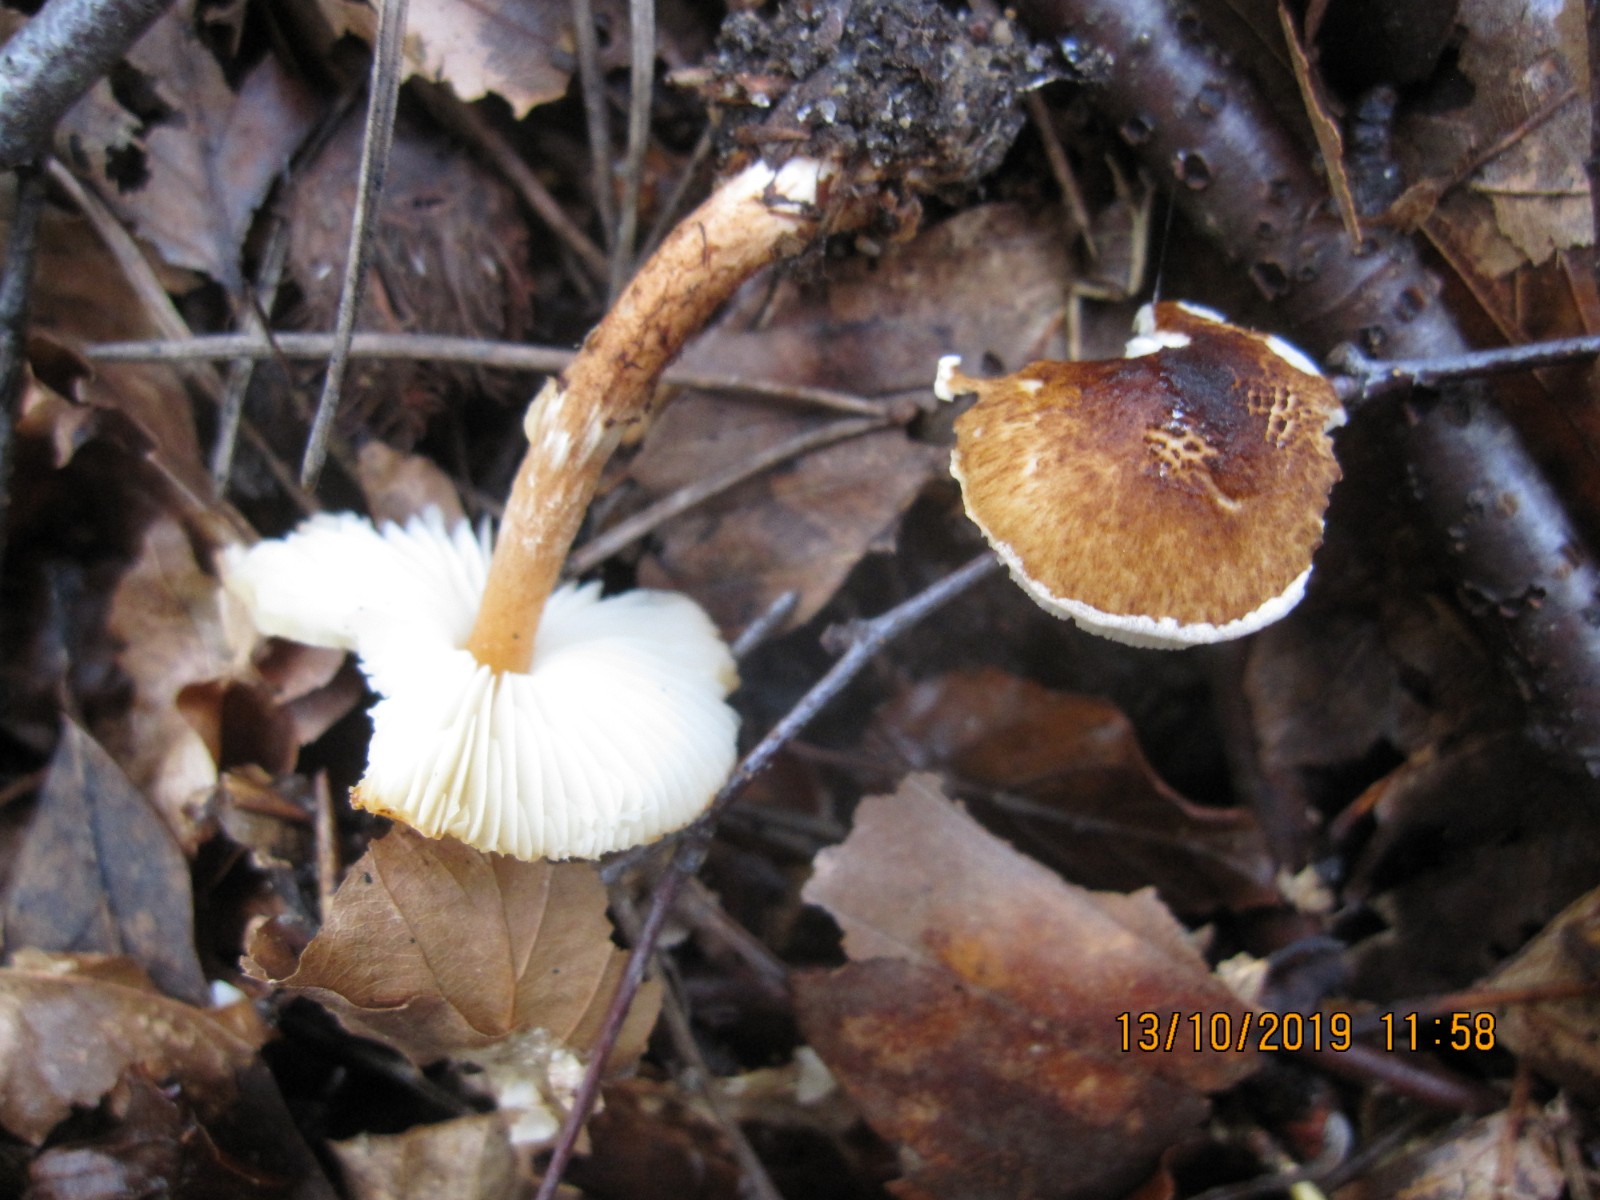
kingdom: Fungi
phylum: Basidiomycota
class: Agaricomycetes
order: Agaricales
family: Agaricaceae
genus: Lepiota
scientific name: Lepiota castanea
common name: kastaniebrun parasolhat
